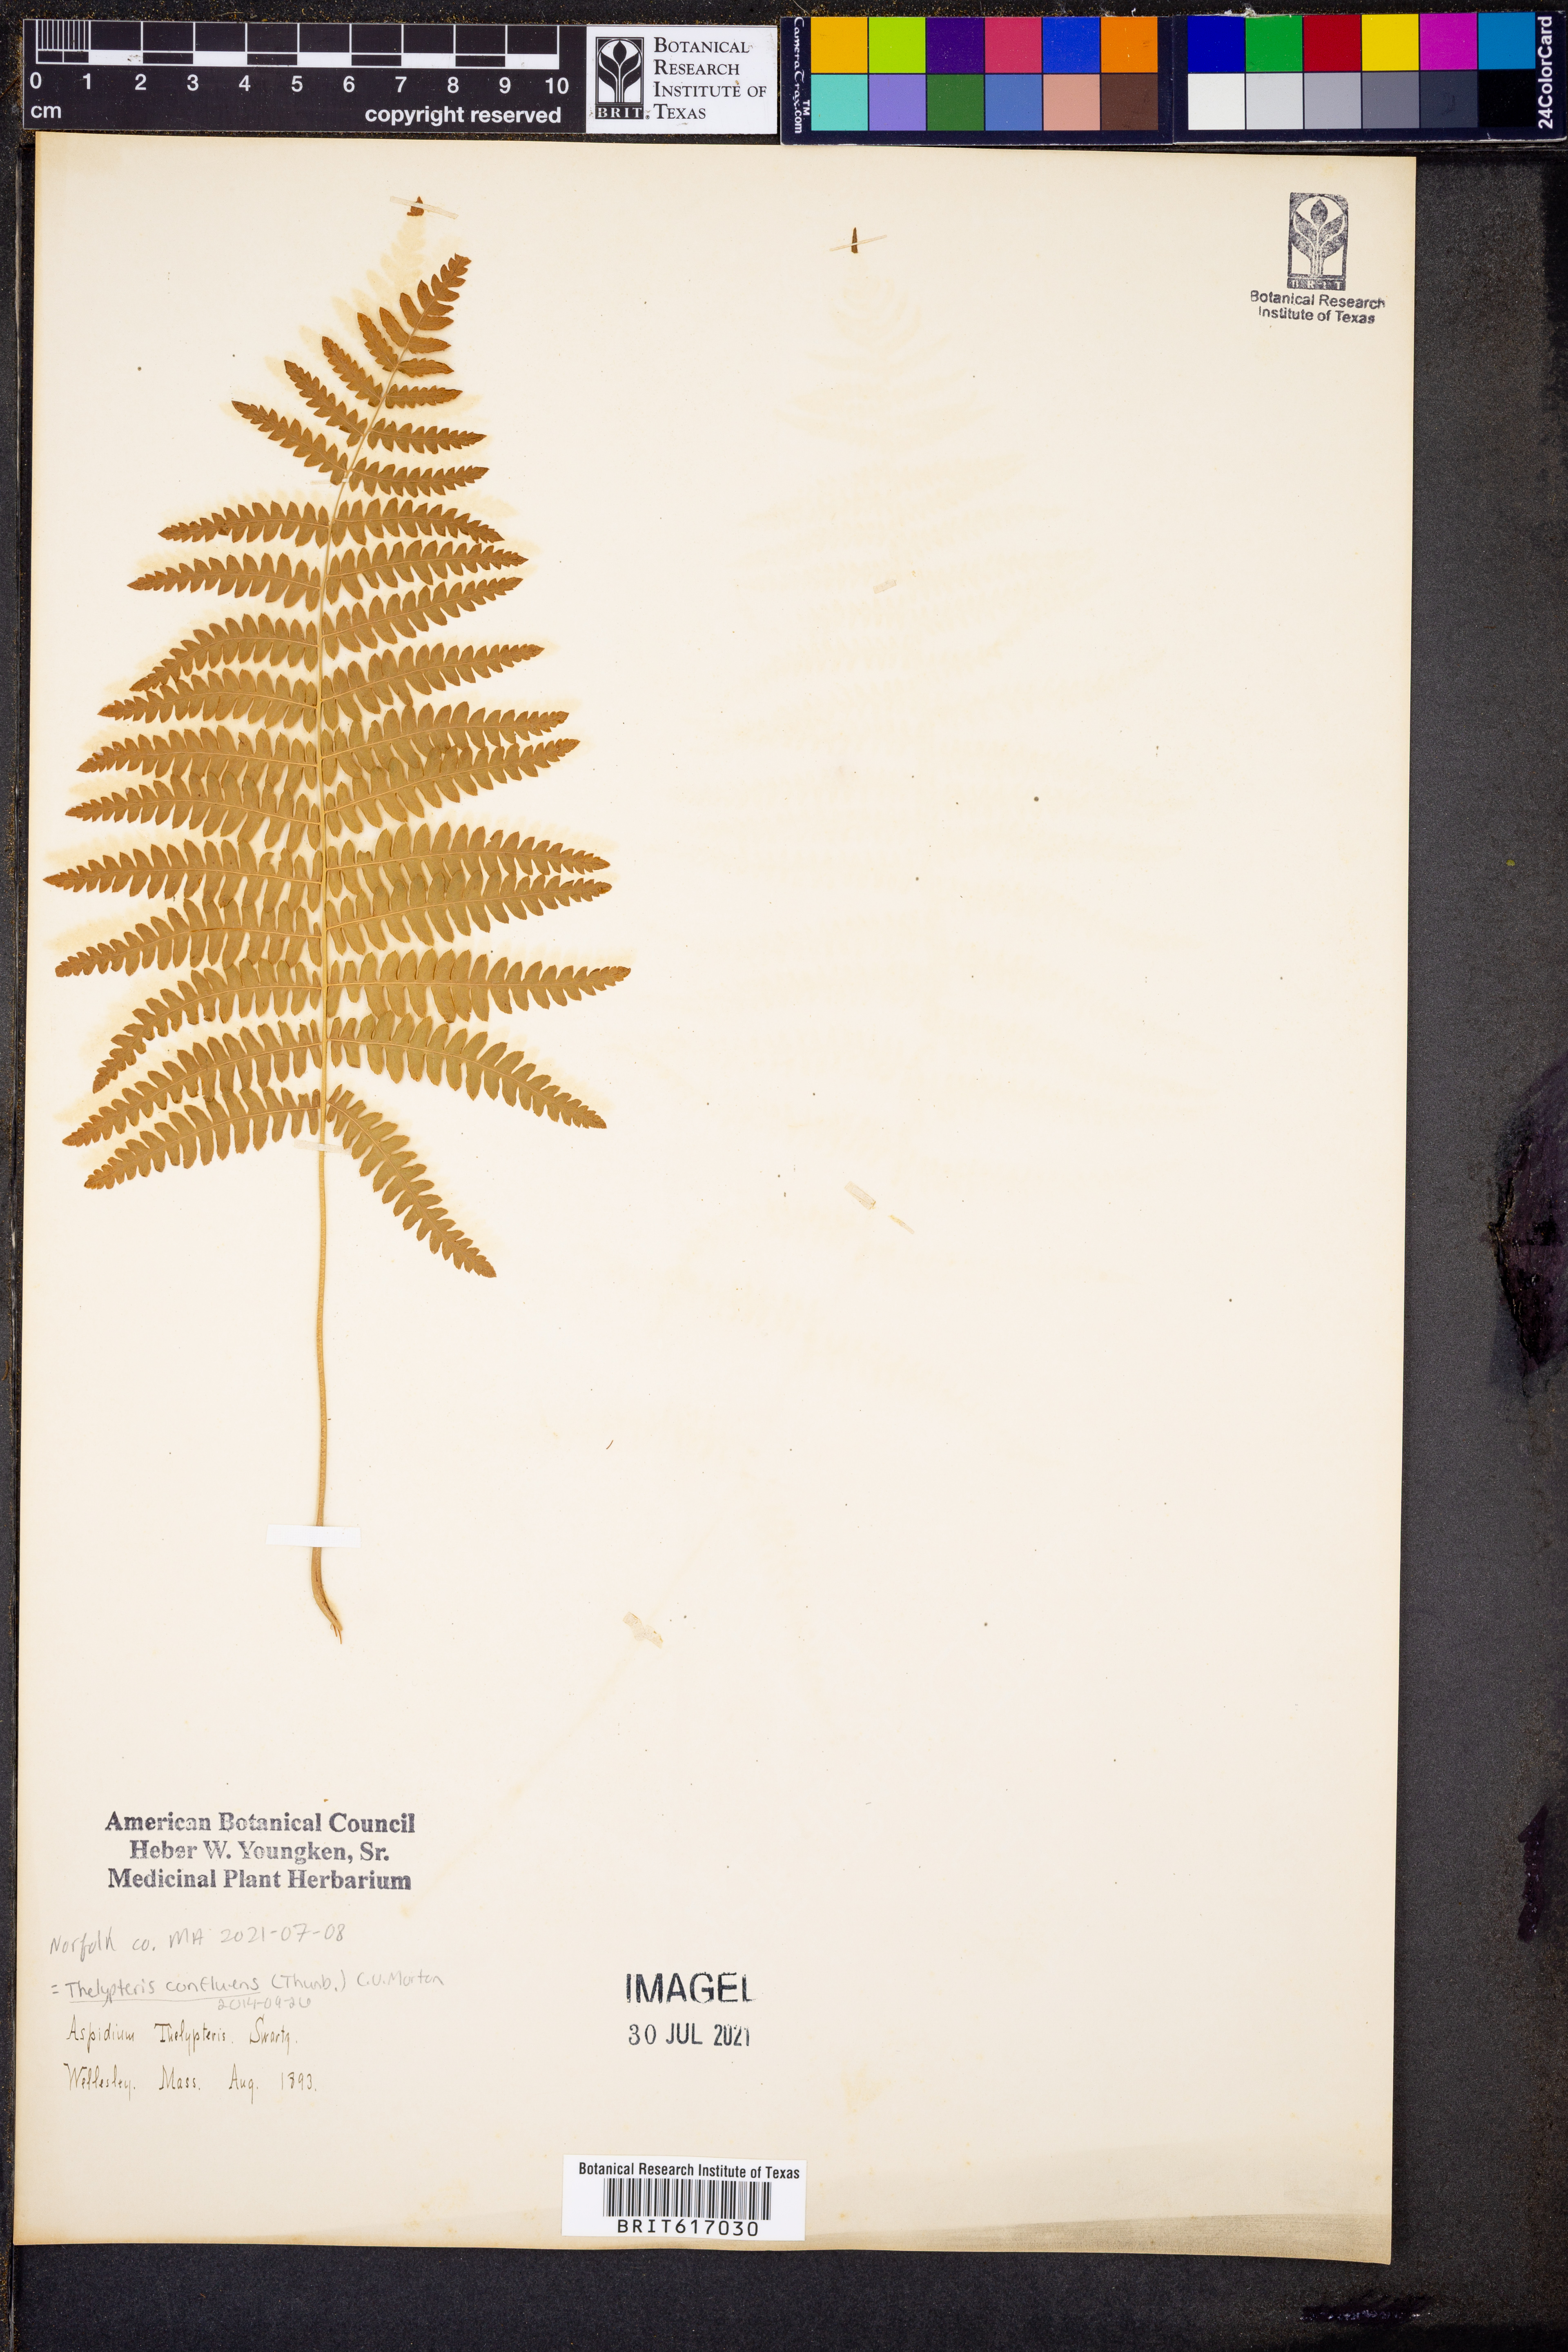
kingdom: Plantae
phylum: Tracheophyta
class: Polypodiopsida
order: Polypodiales
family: Thelypteridaceae
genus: Thelypteris
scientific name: Thelypteris confluens
